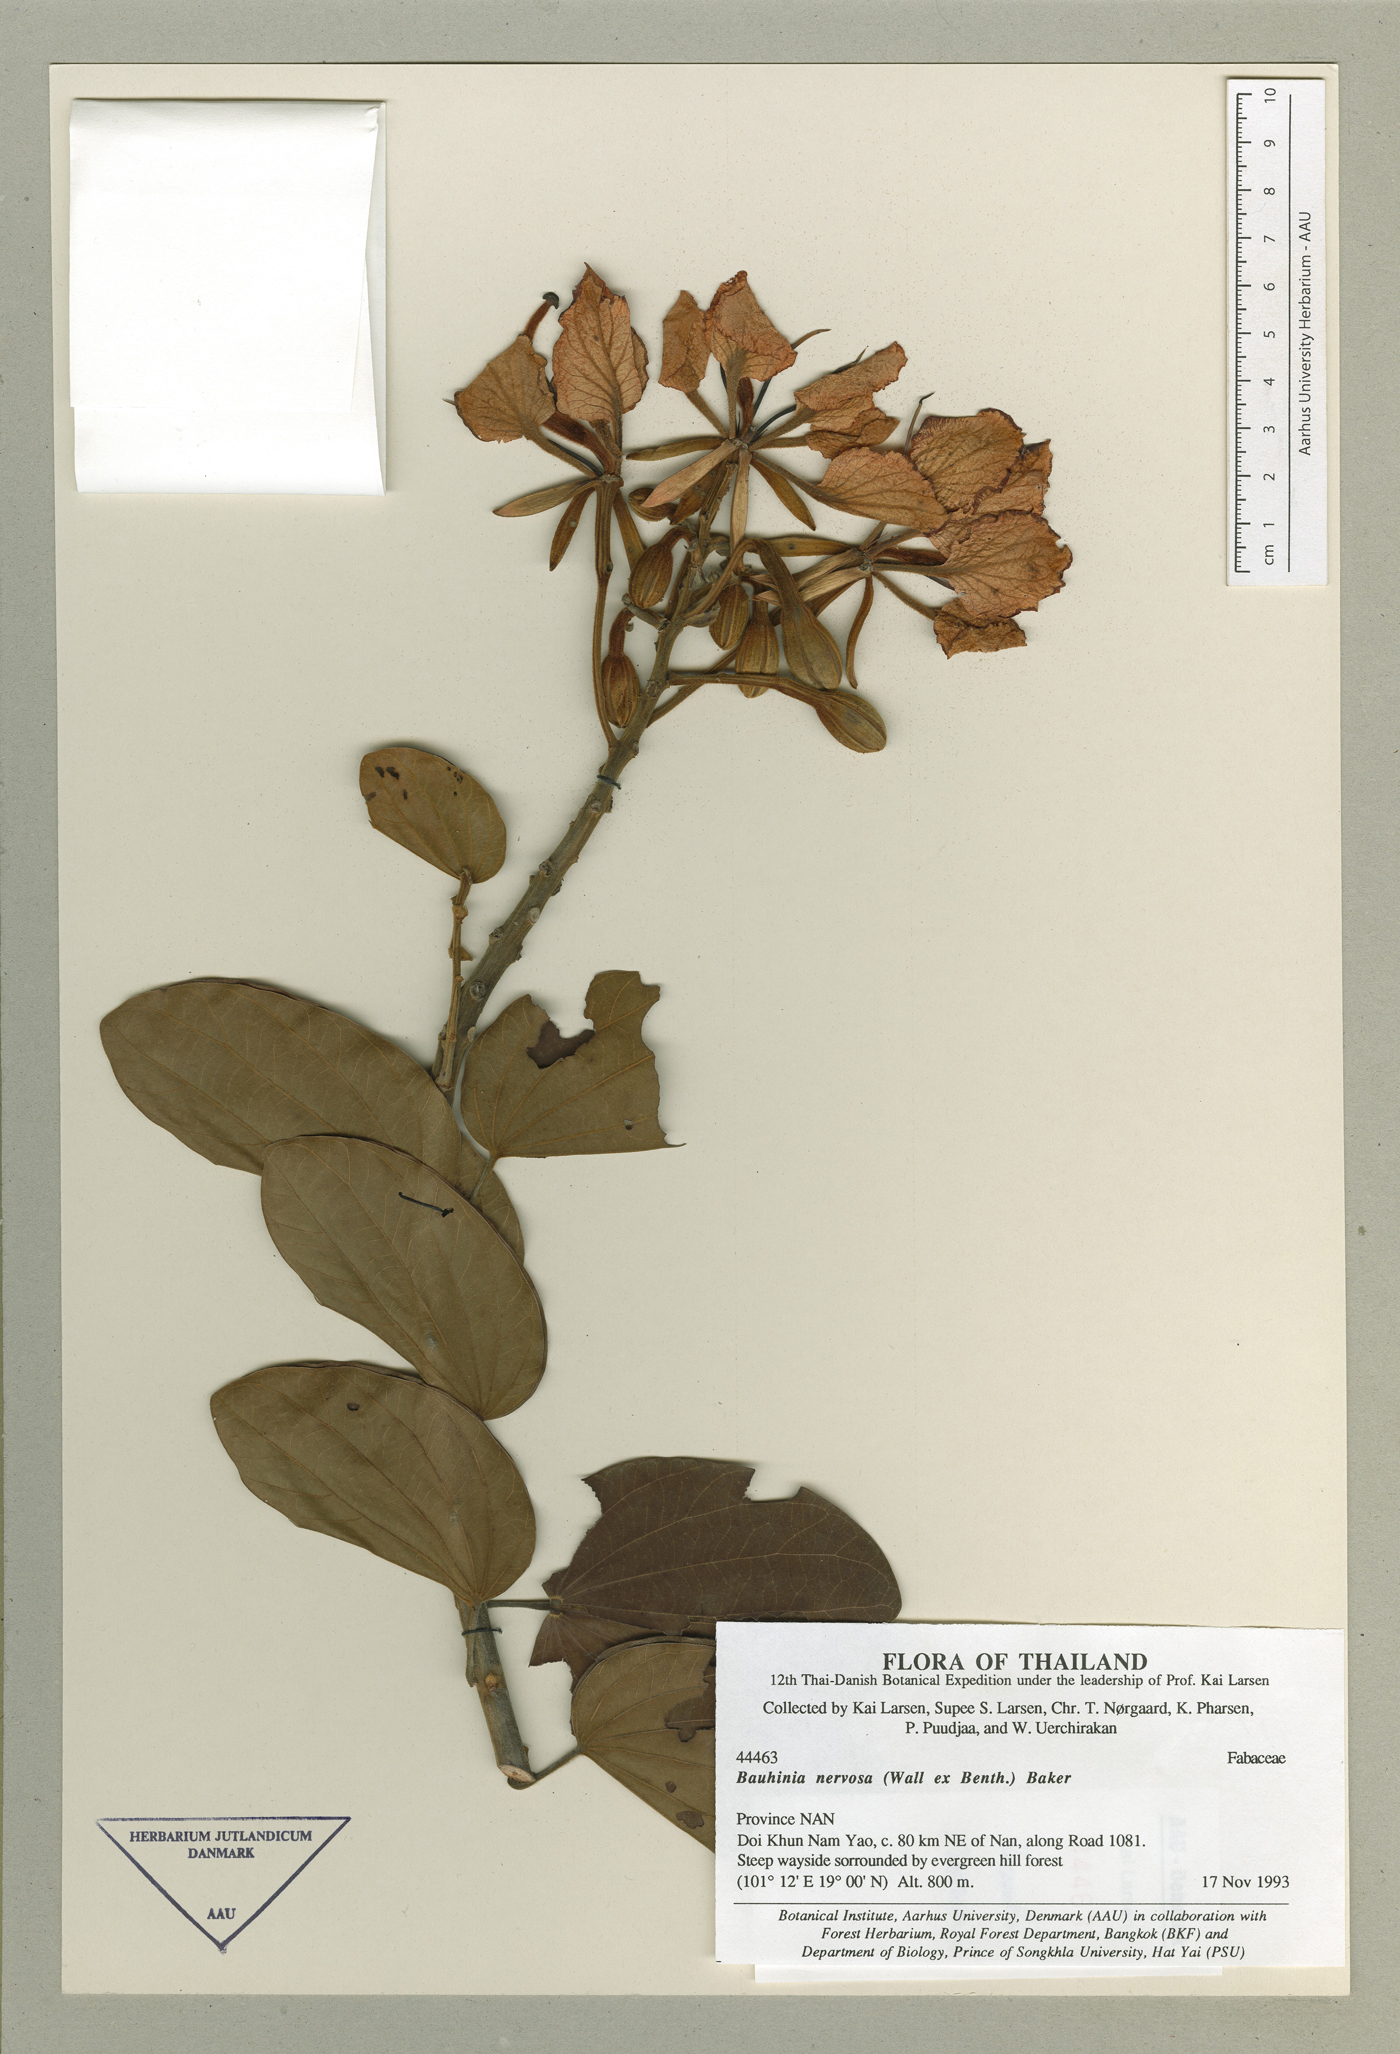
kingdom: Plantae
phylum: Tracheophyta
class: Magnoliopsida
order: Fabales
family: Fabaceae
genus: Bauhinia
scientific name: Bauhinia nervosa
